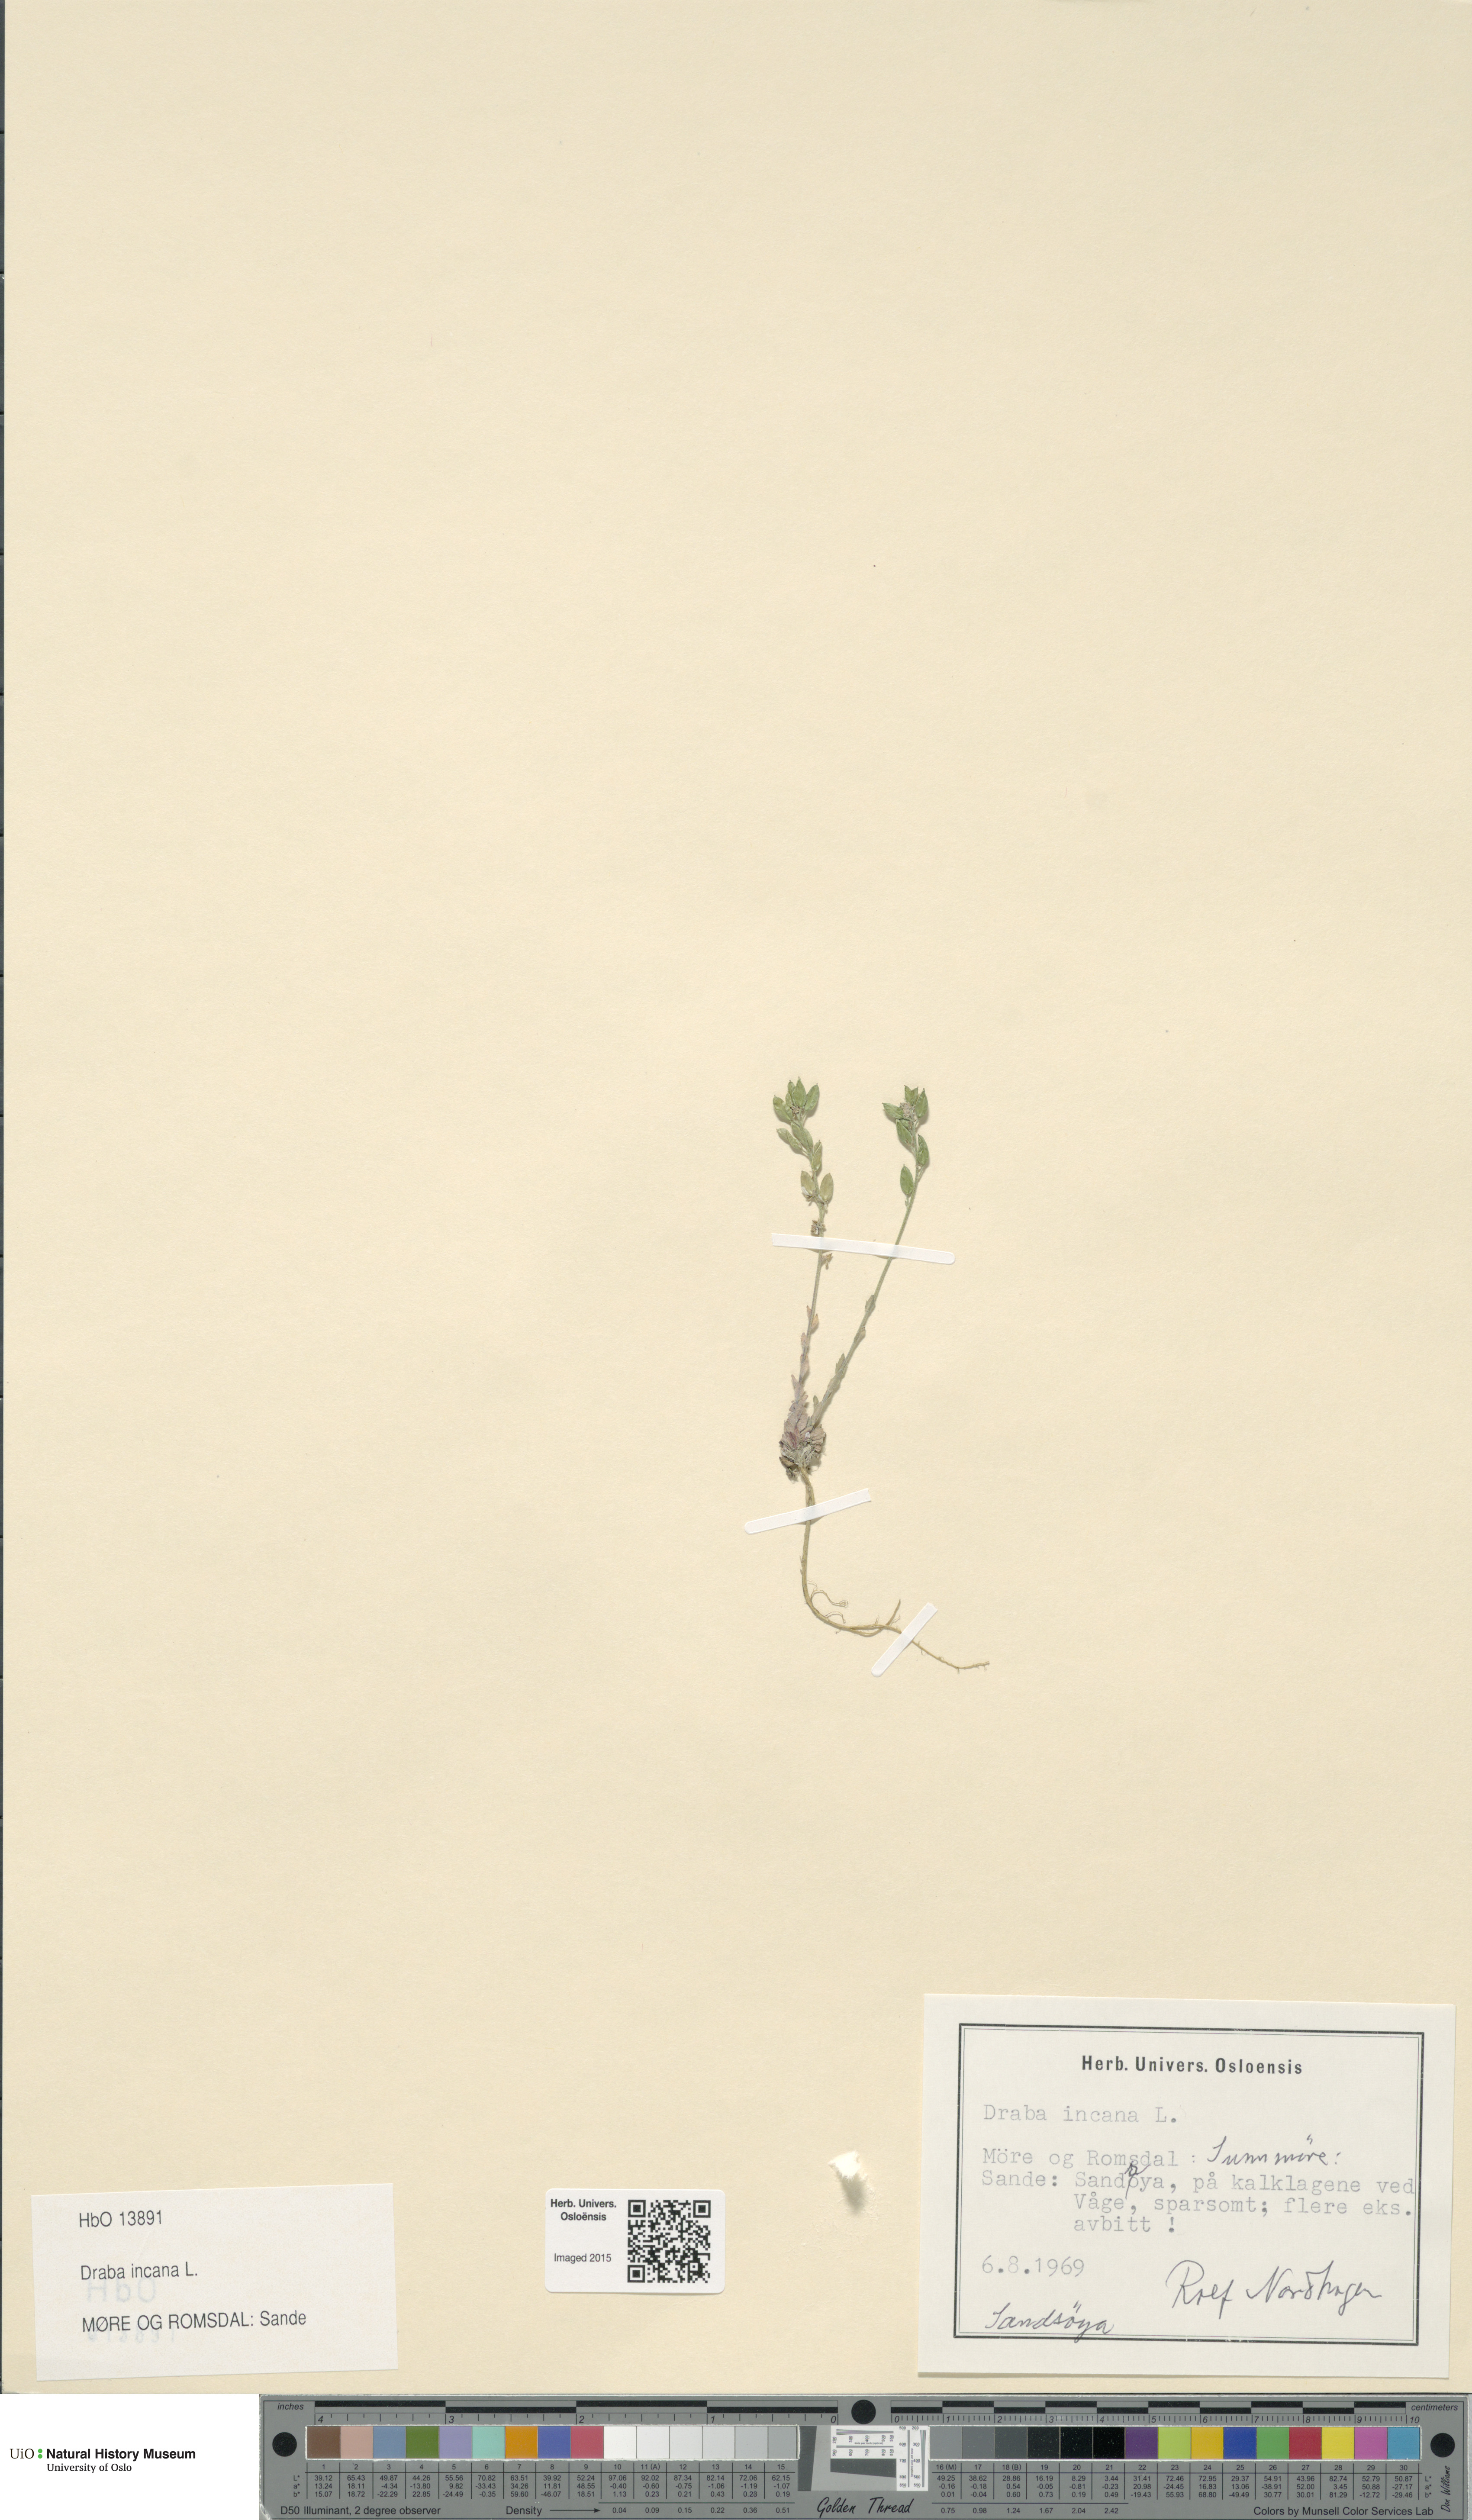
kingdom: Plantae
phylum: Tracheophyta
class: Magnoliopsida
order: Brassicales
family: Brassicaceae
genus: Draba
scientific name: Draba incana
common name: Hoary whitlow-grass
